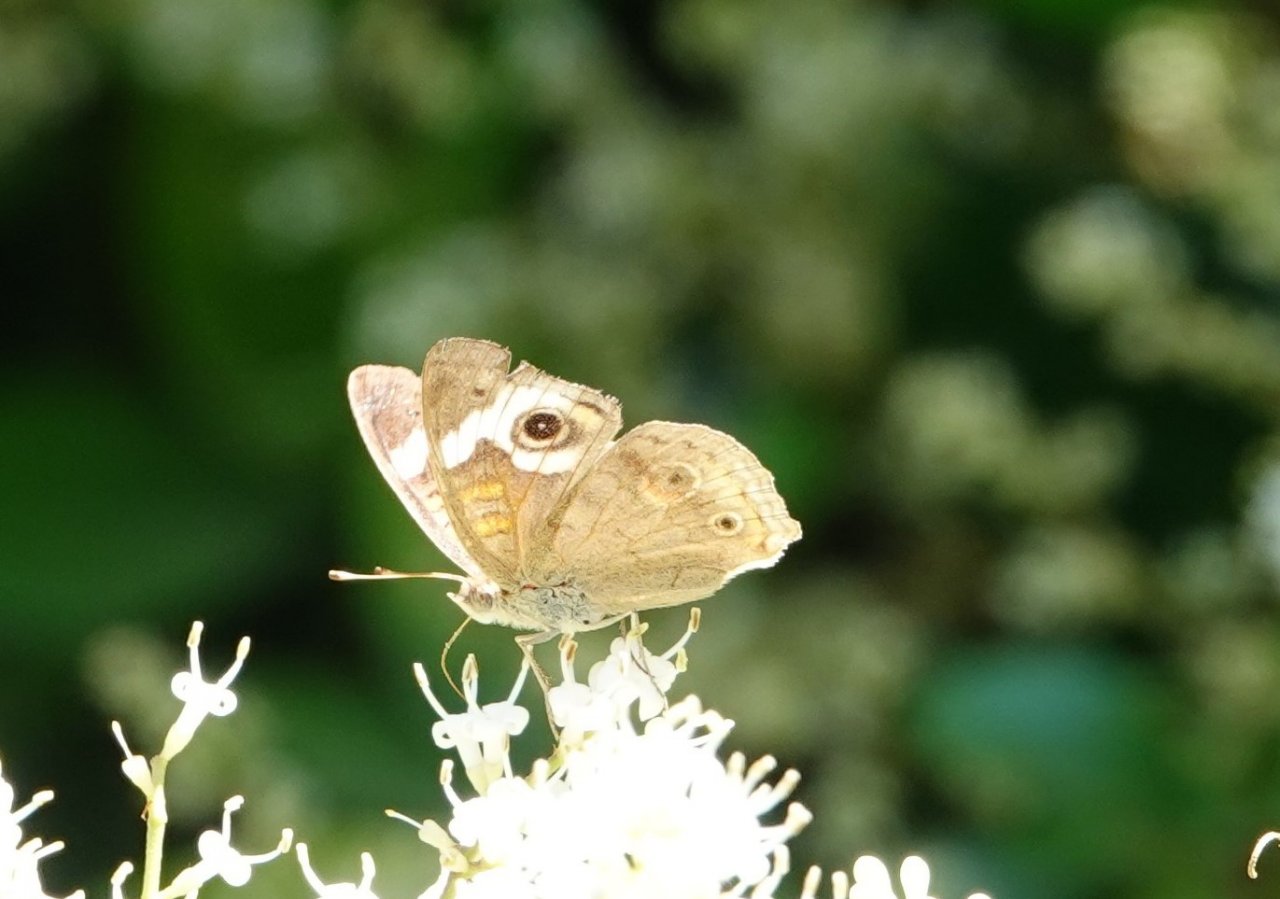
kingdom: Animalia
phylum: Arthropoda
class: Insecta
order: Lepidoptera
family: Nymphalidae
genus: Junonia
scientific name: Junonia coenia
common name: Common Buckeye
